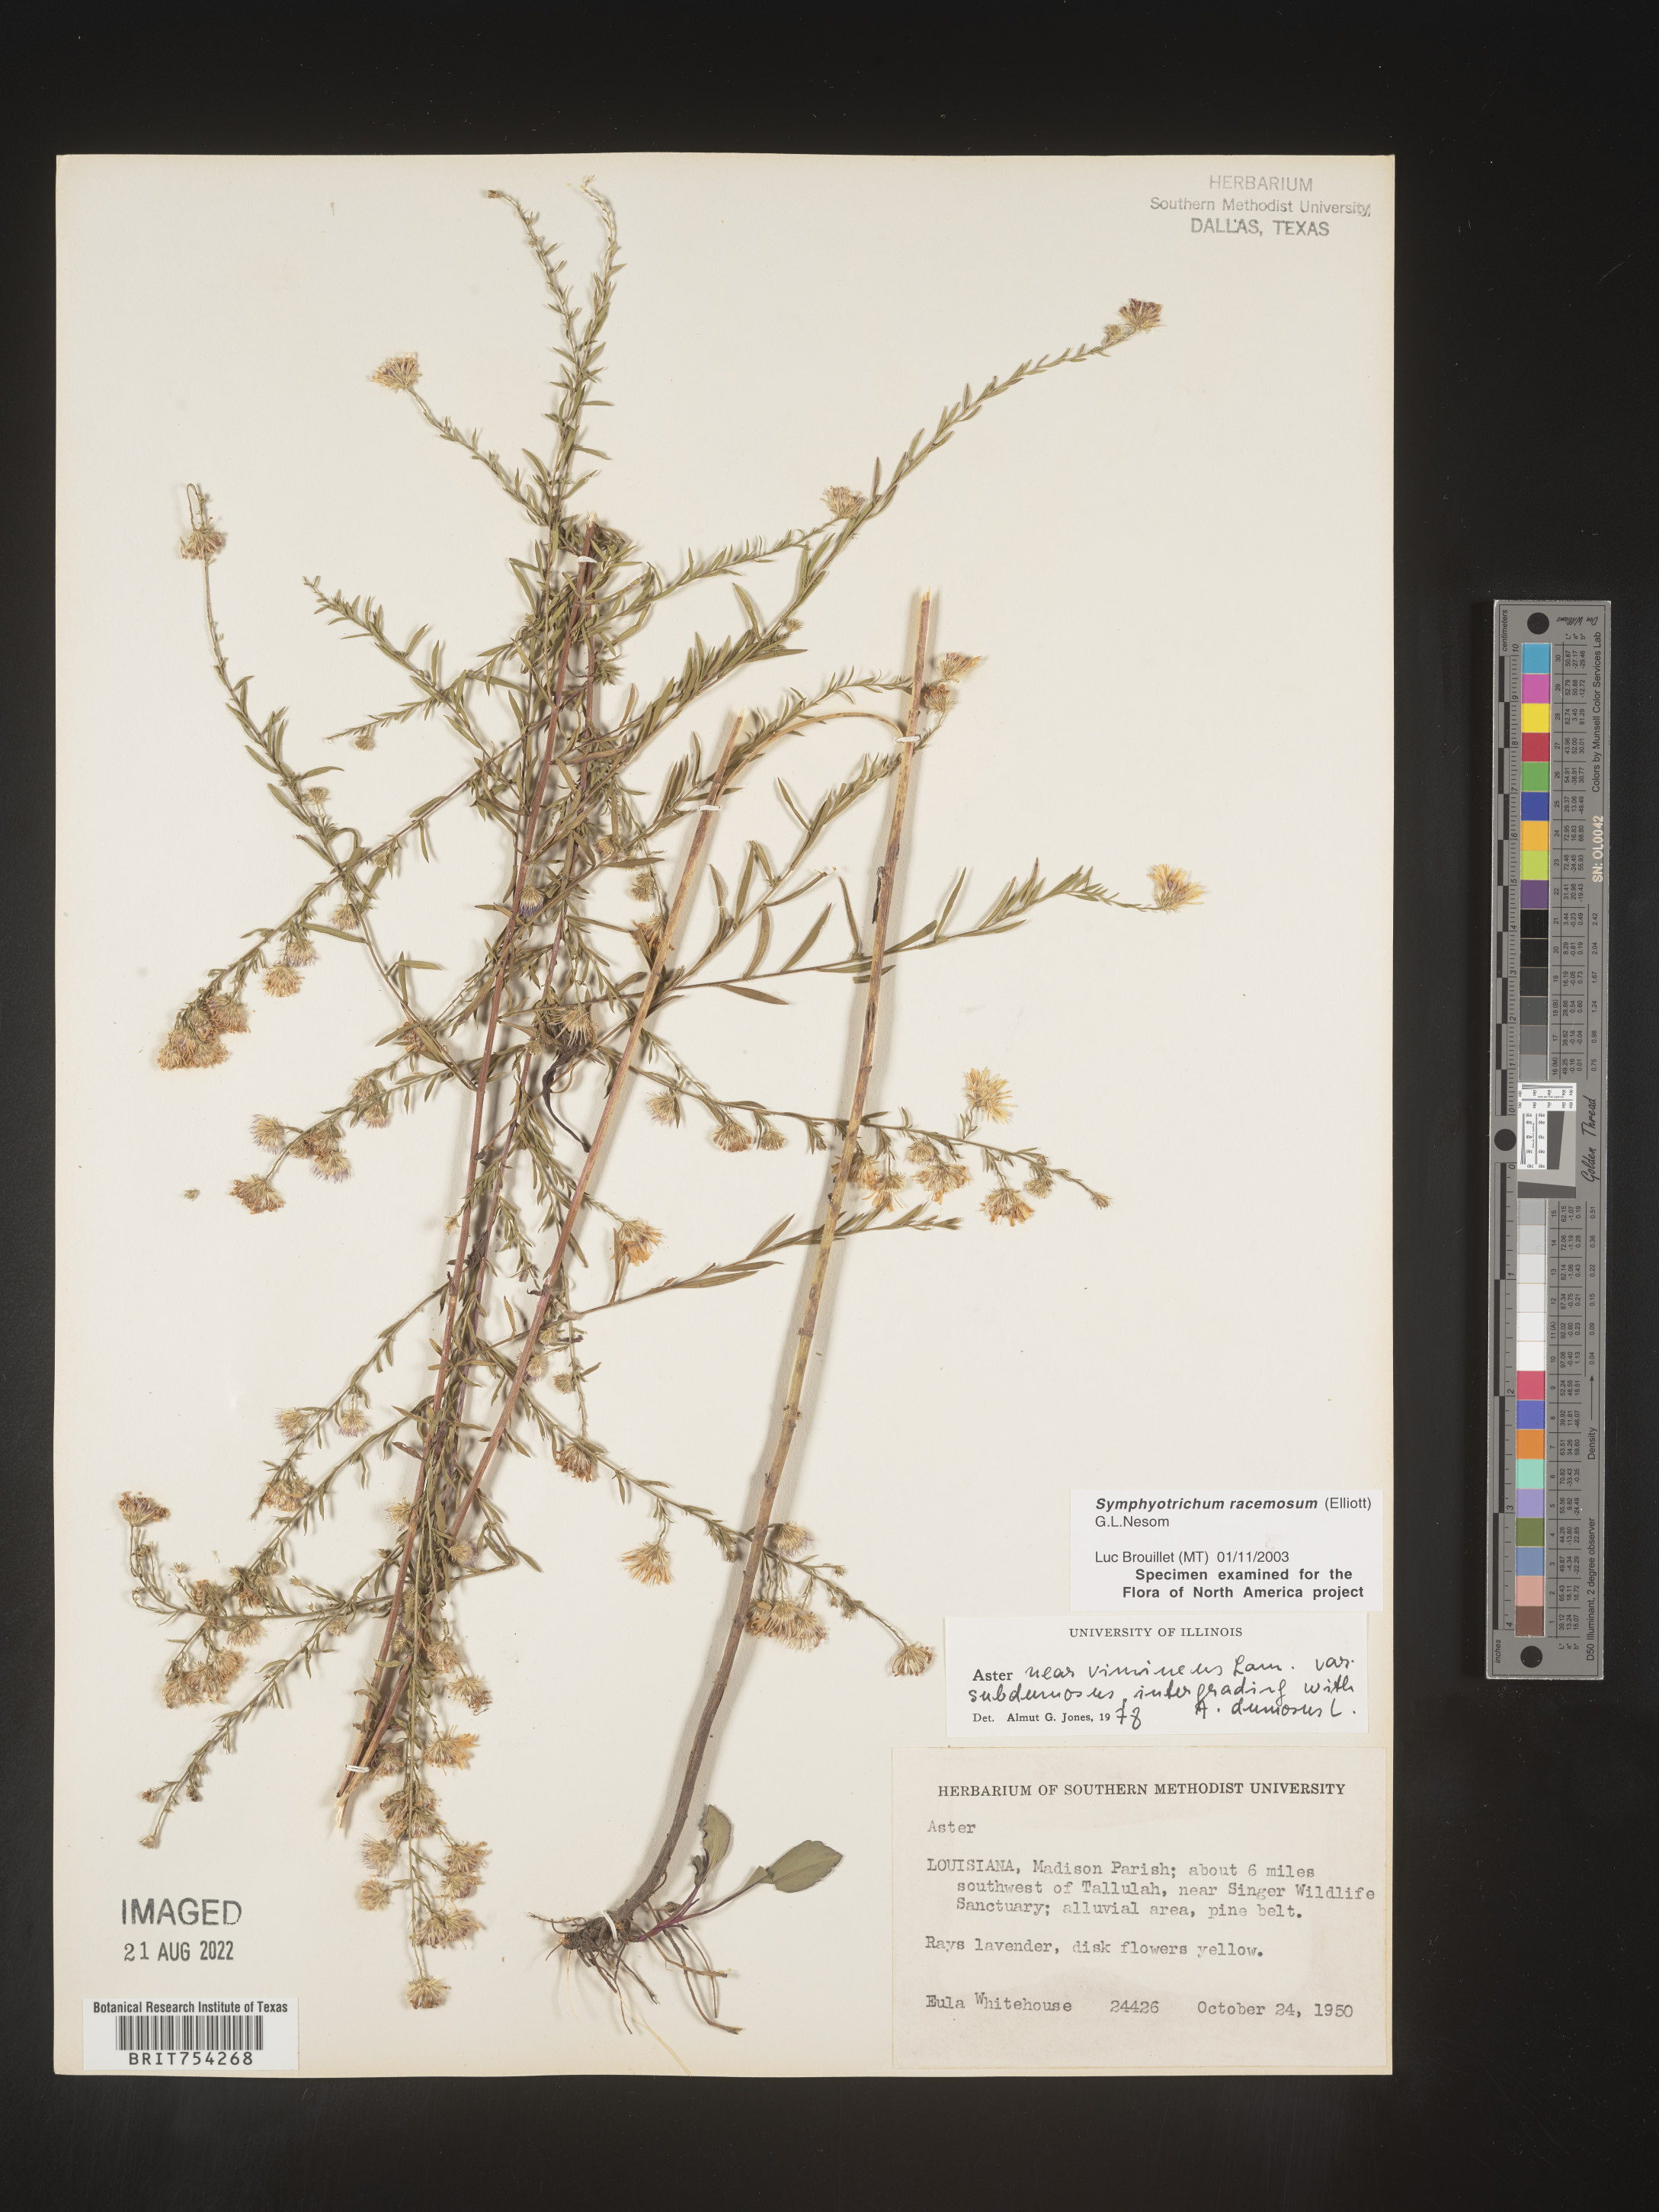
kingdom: Plantae
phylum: Tracheophyta
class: Magnoliopsida
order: Asterales
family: Asteraceae
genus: Symphyotrichum
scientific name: Symphyotrichum racemosum
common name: Small white aster
